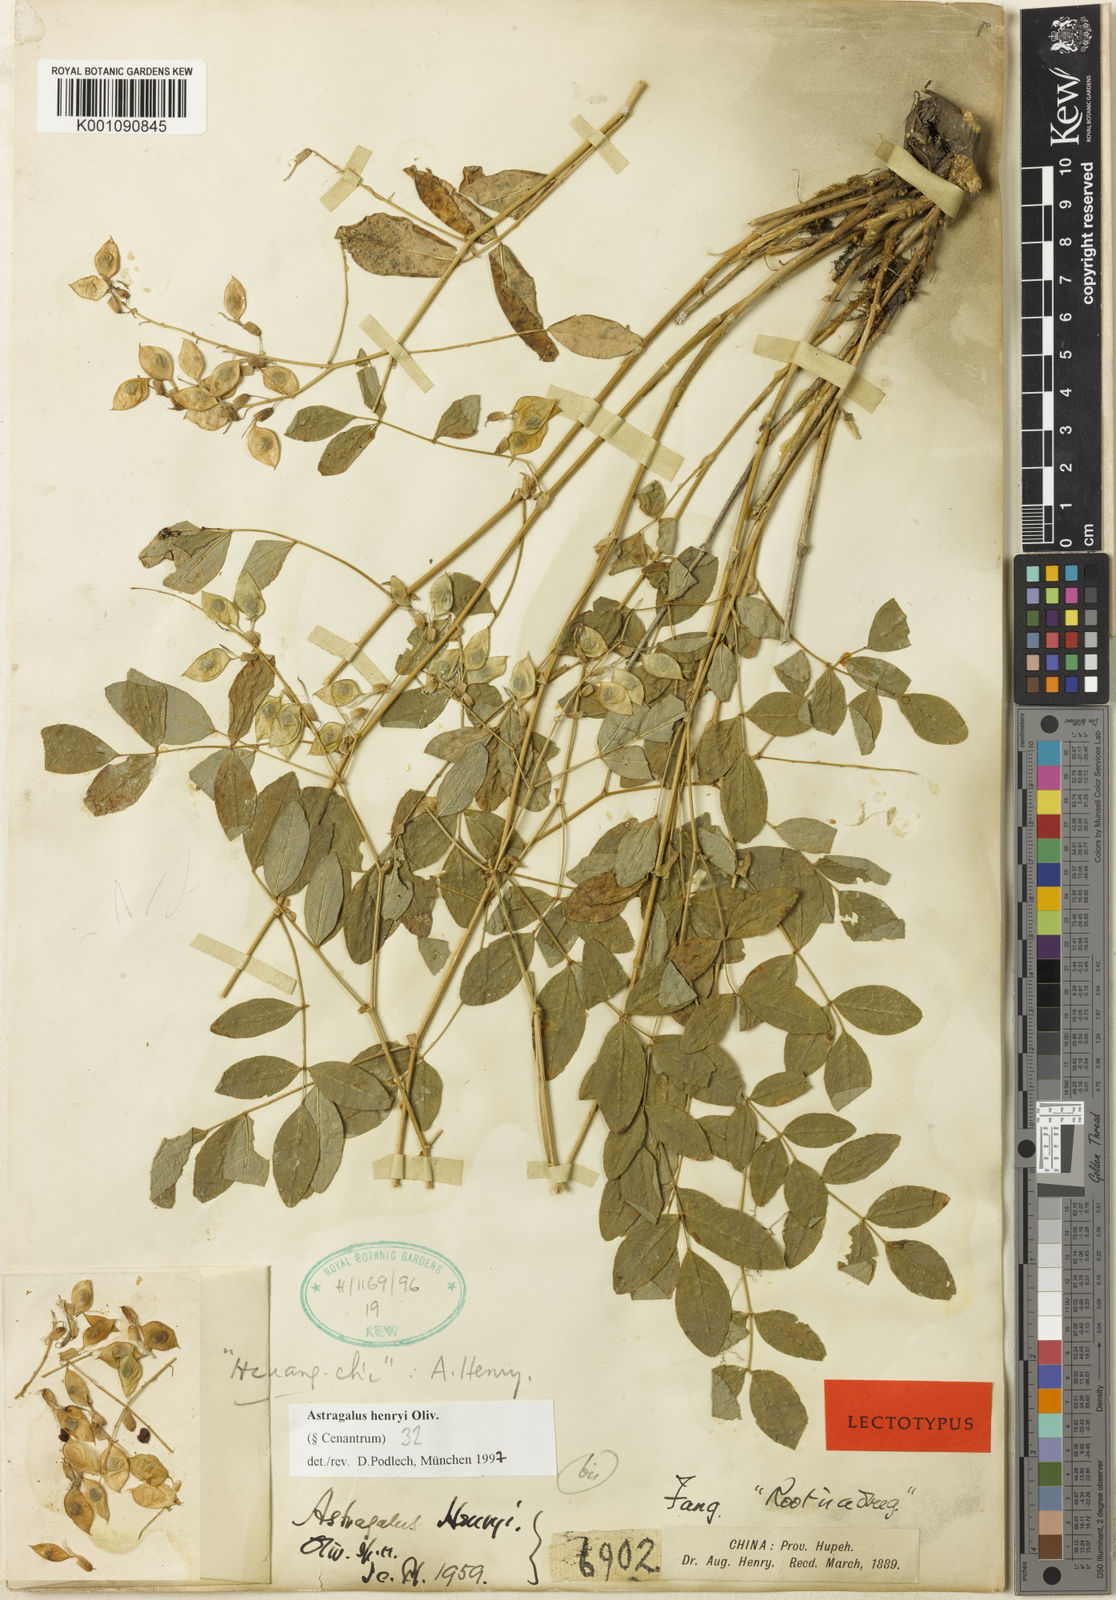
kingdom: Plantae
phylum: Tracheophyta
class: Magnoliopsida
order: Fabales
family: Fabaceae
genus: Astragalus
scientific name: Astragalus
